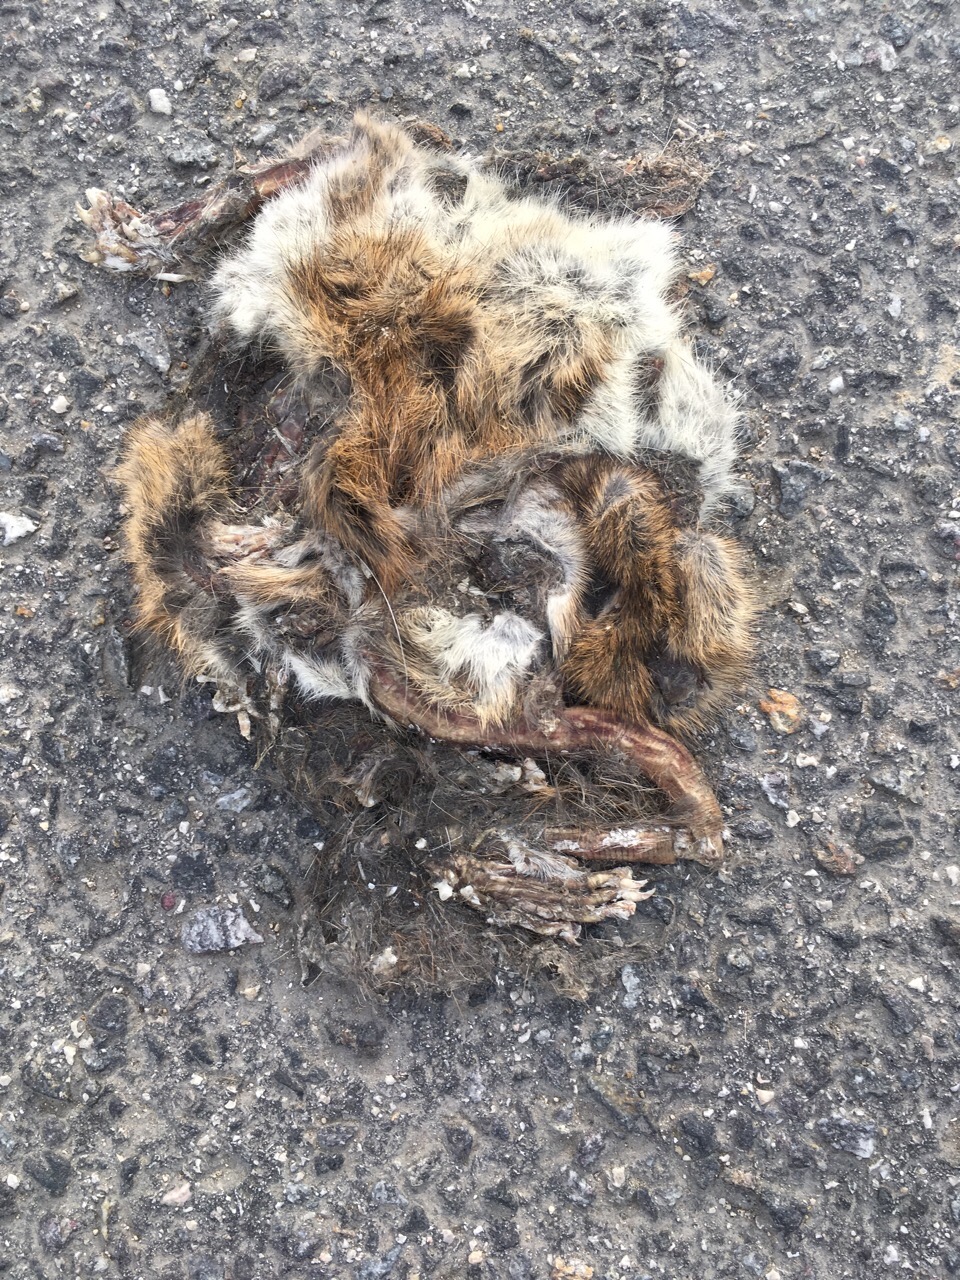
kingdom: Animalia
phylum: Chordata
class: Mammalia
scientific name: Mammalia
